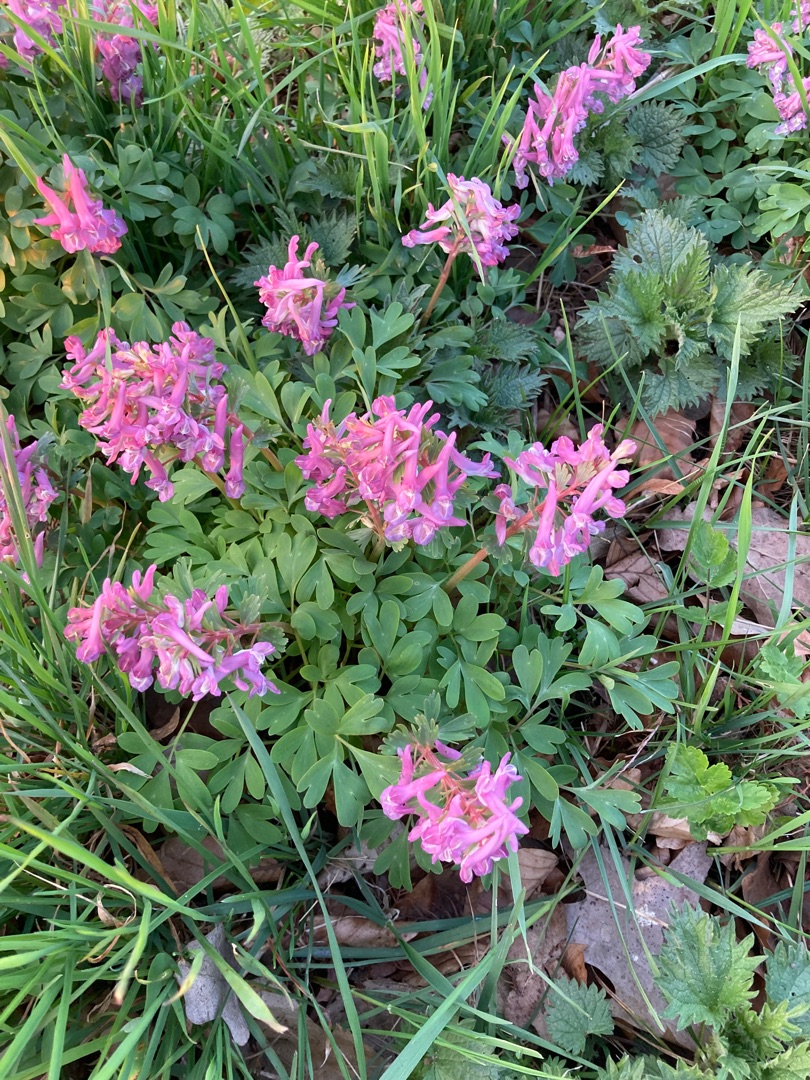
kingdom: Plantae
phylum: Tracheophyta
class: Magnoliopsida
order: Ranunculales
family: Papaveraceae
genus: Corydalis
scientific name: Corydalis solida
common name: Langstilket lærkespore
